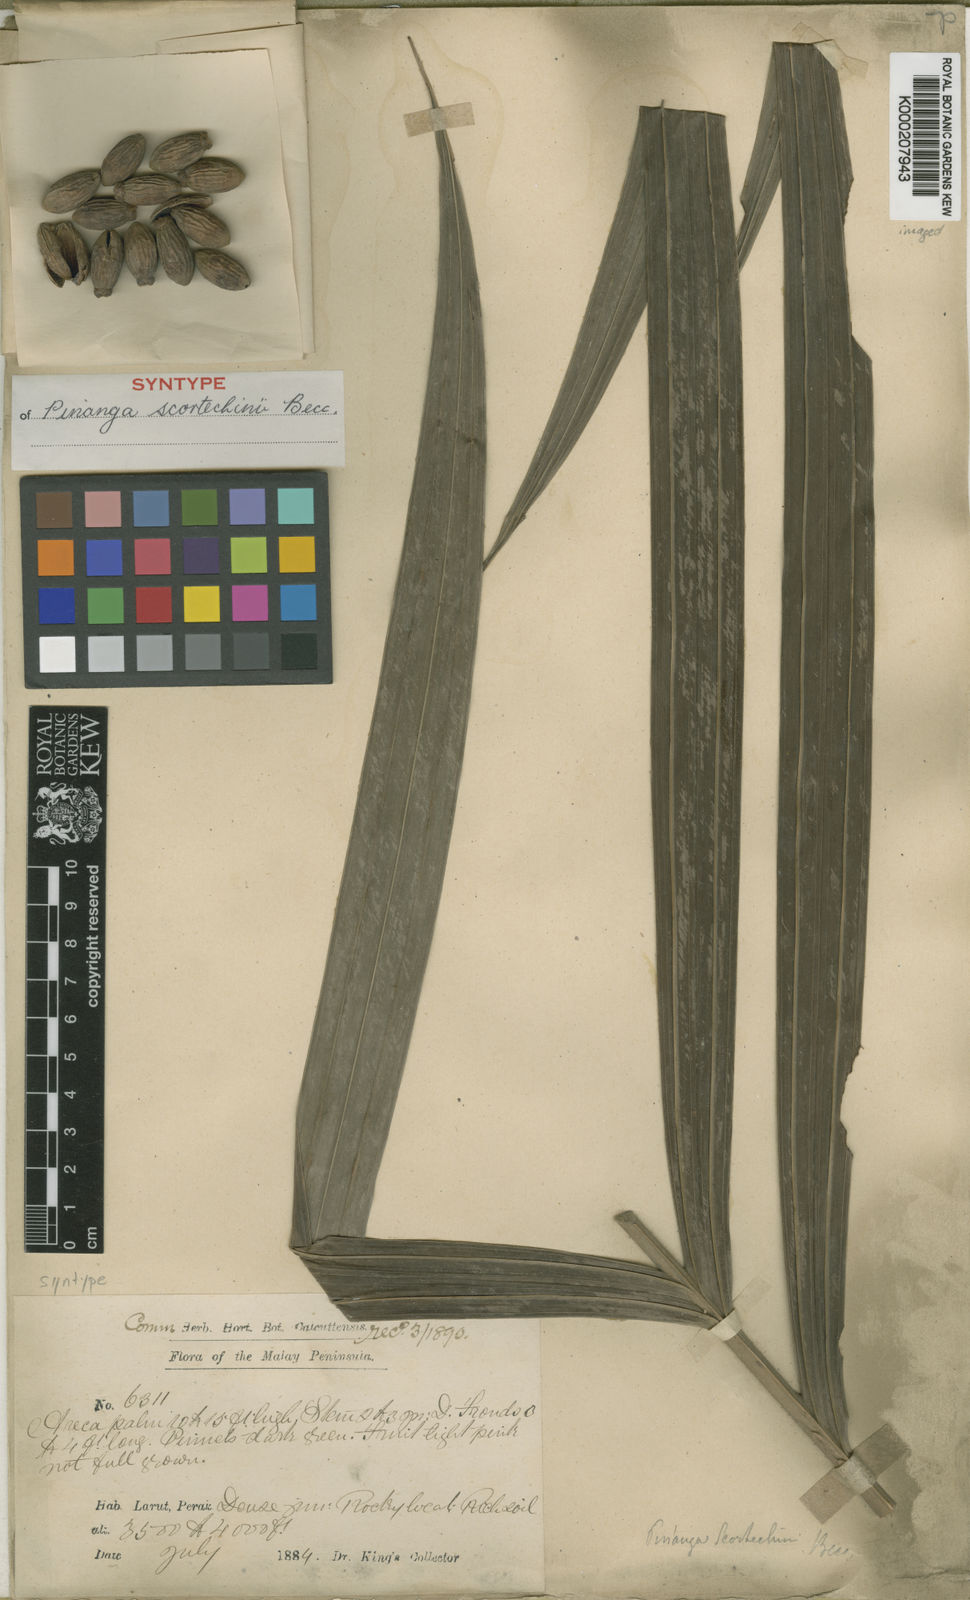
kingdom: Plantae
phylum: Tracheophyta
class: Liliopsida
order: Arecales
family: Arecaceae
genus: Pinanga
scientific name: Pinanga scortechinii
